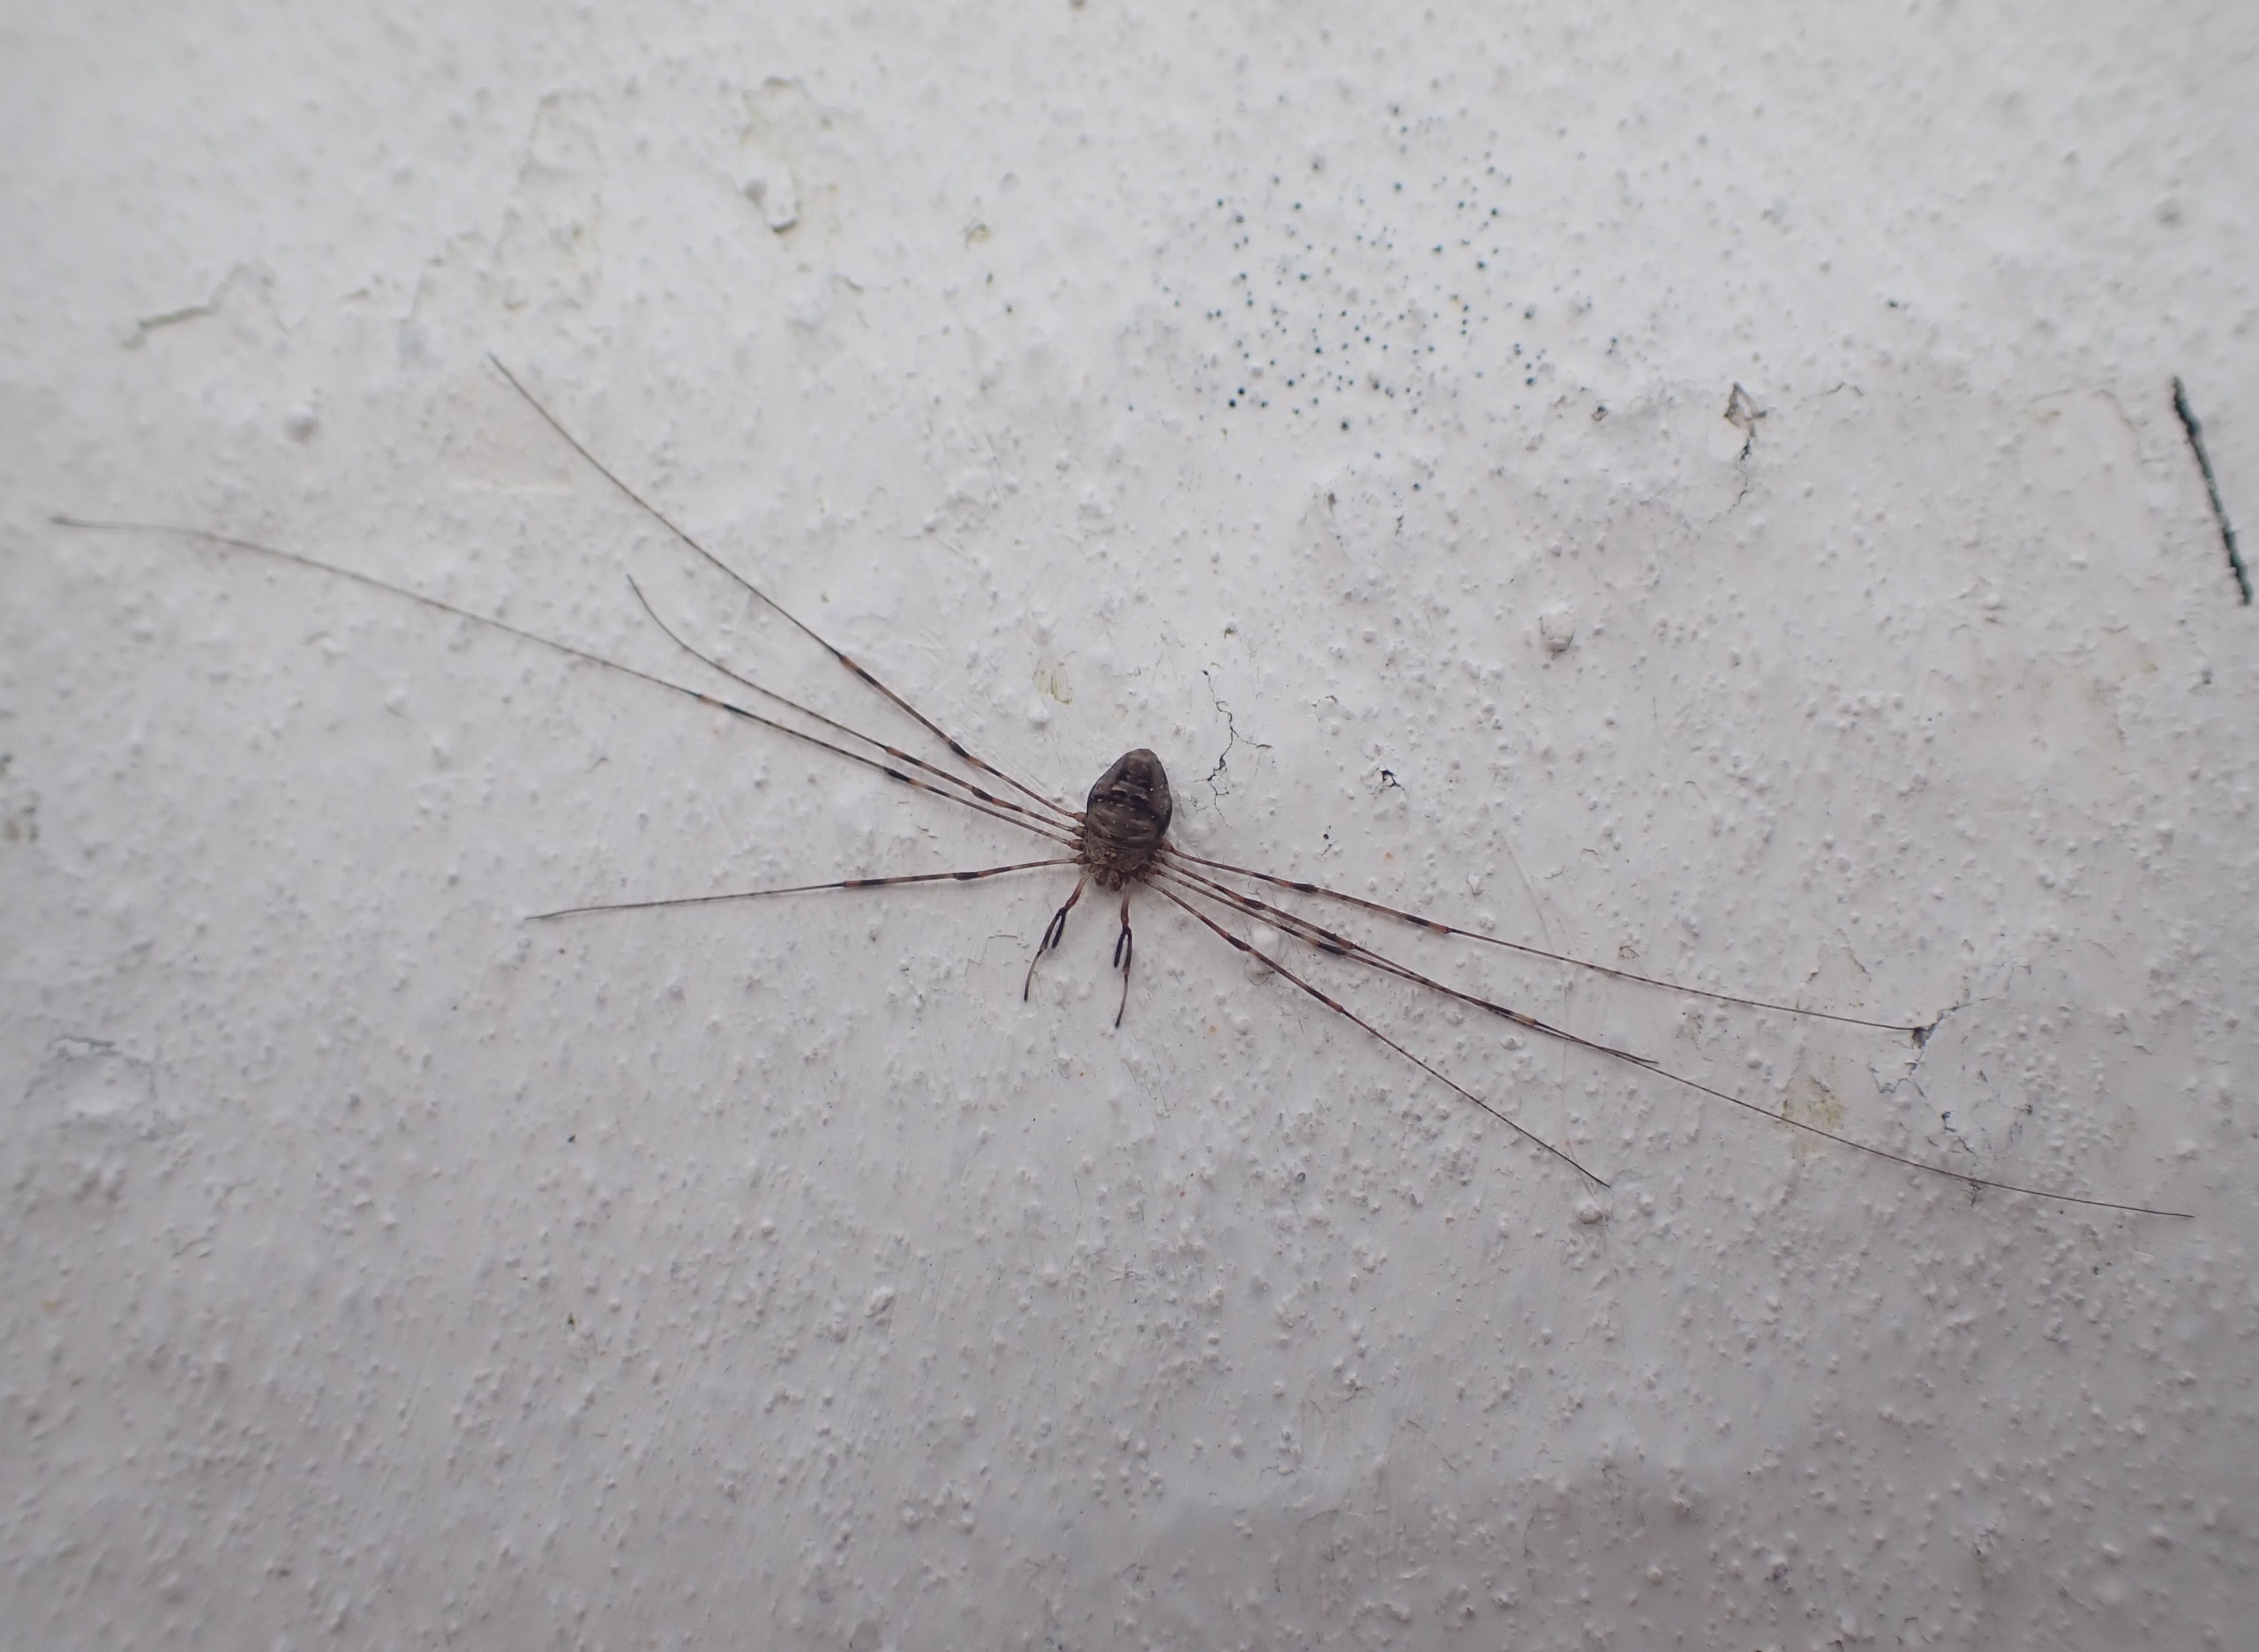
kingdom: Animalia
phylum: Arthropoda
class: Arachnida
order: Opiliones
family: Phalangiidae
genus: Dicranopalpus
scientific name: Dicranopalpus ramosus
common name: Gaffelmejer
